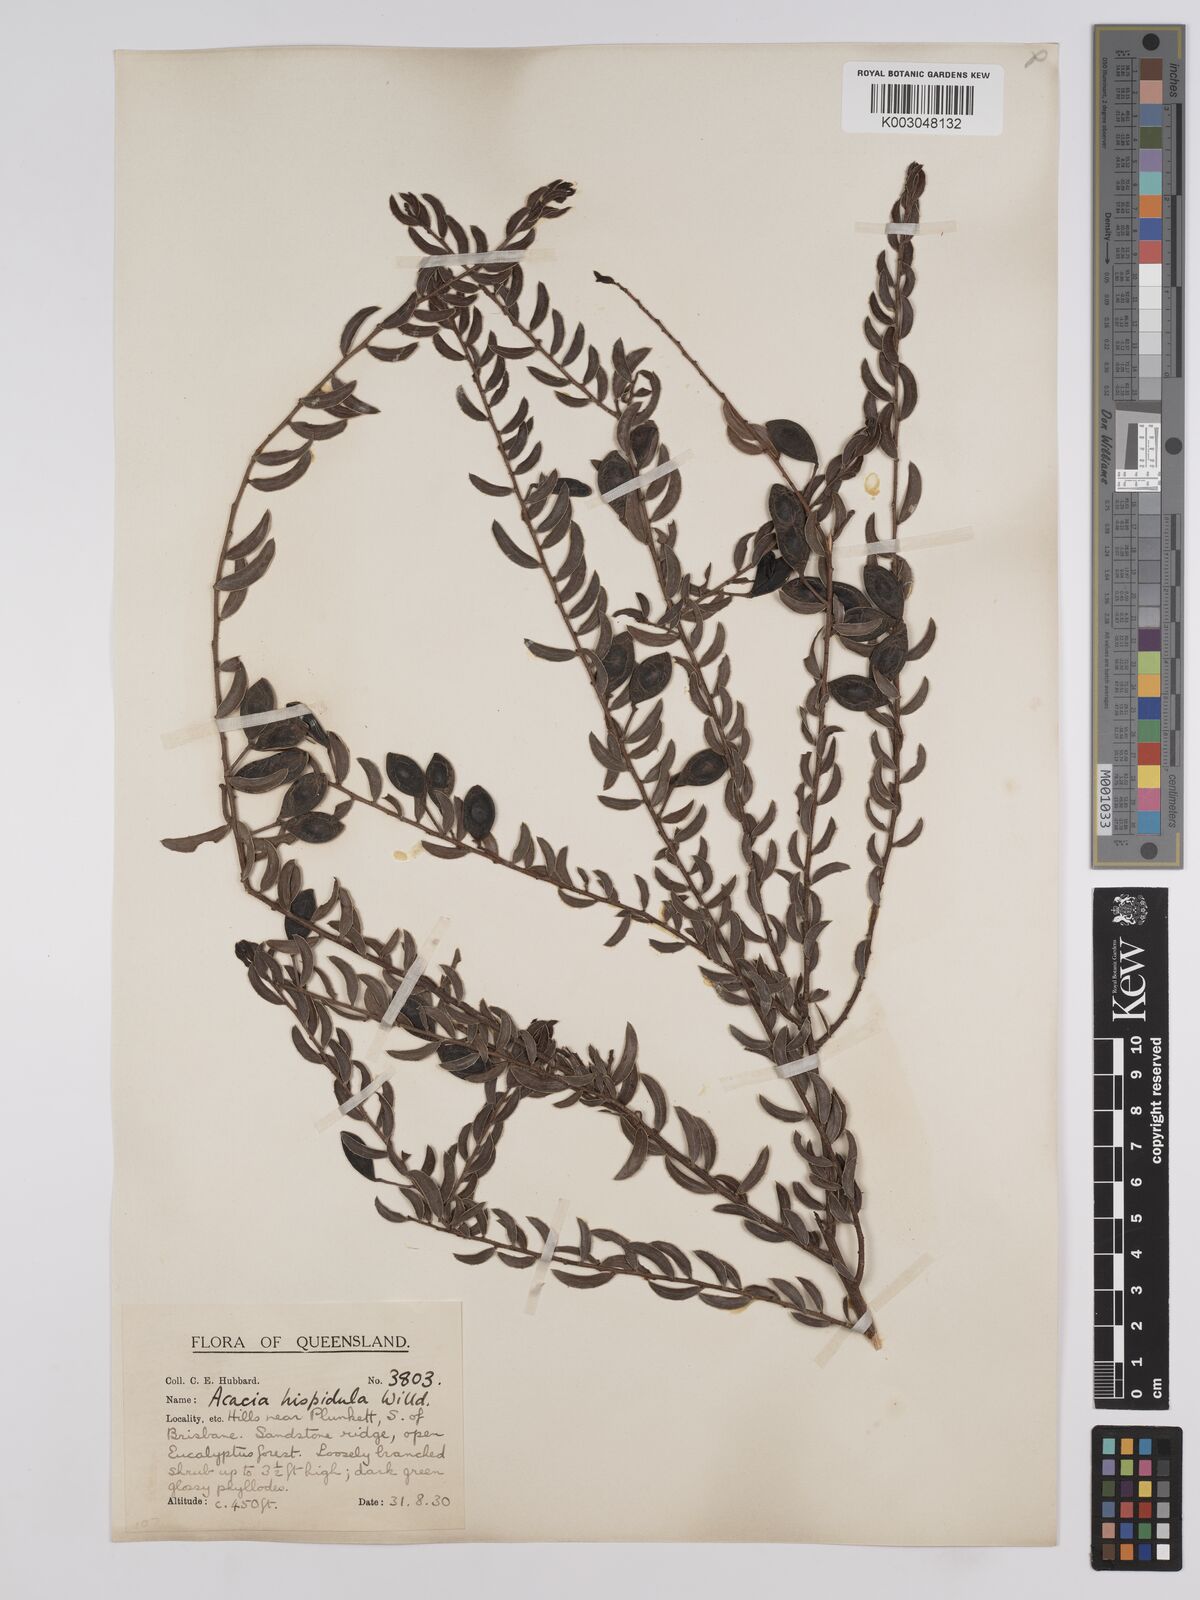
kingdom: Plantae
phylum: Tracheophyta
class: Magnoliopsida
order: Fabales
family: Fabaceae
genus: Acacia
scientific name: Acacia hispidula
